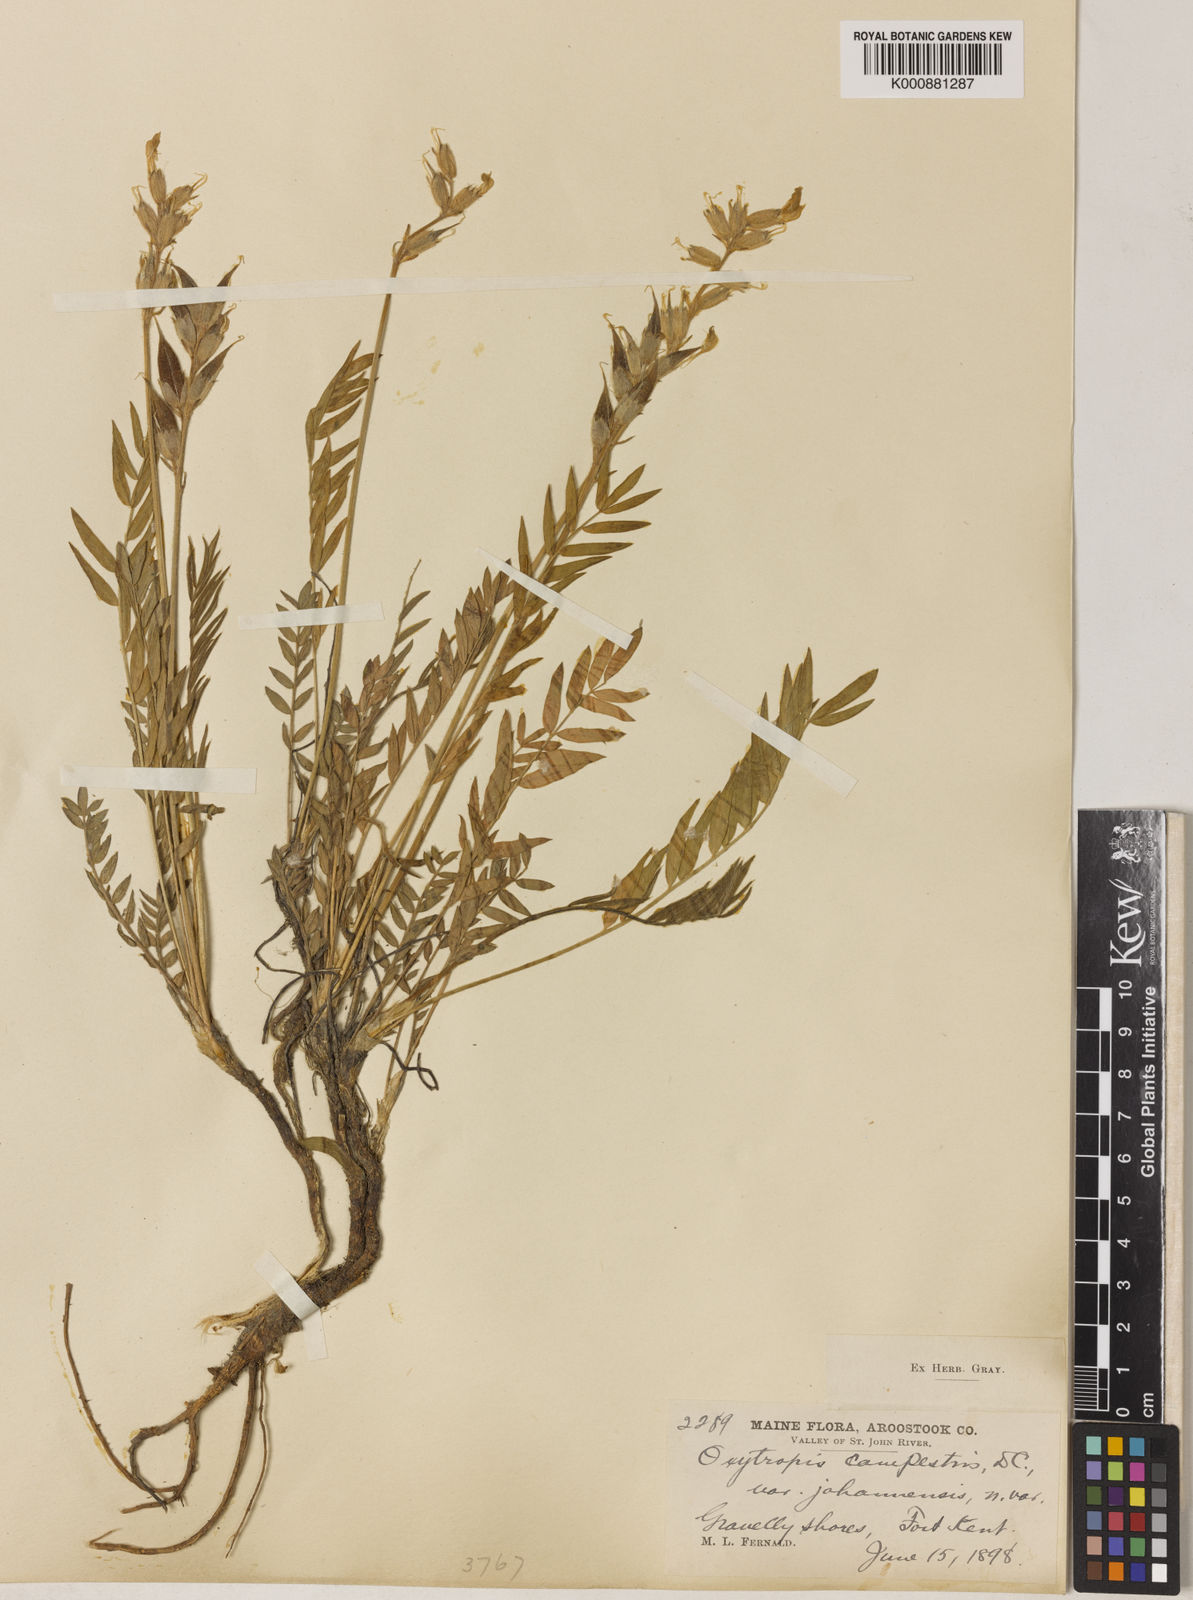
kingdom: Plantae
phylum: Tracheophyta
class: Magnoliopsida
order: Fabales
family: Fabaceae
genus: Oxytropis
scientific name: Oxytropis campestris
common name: Field locoweed
